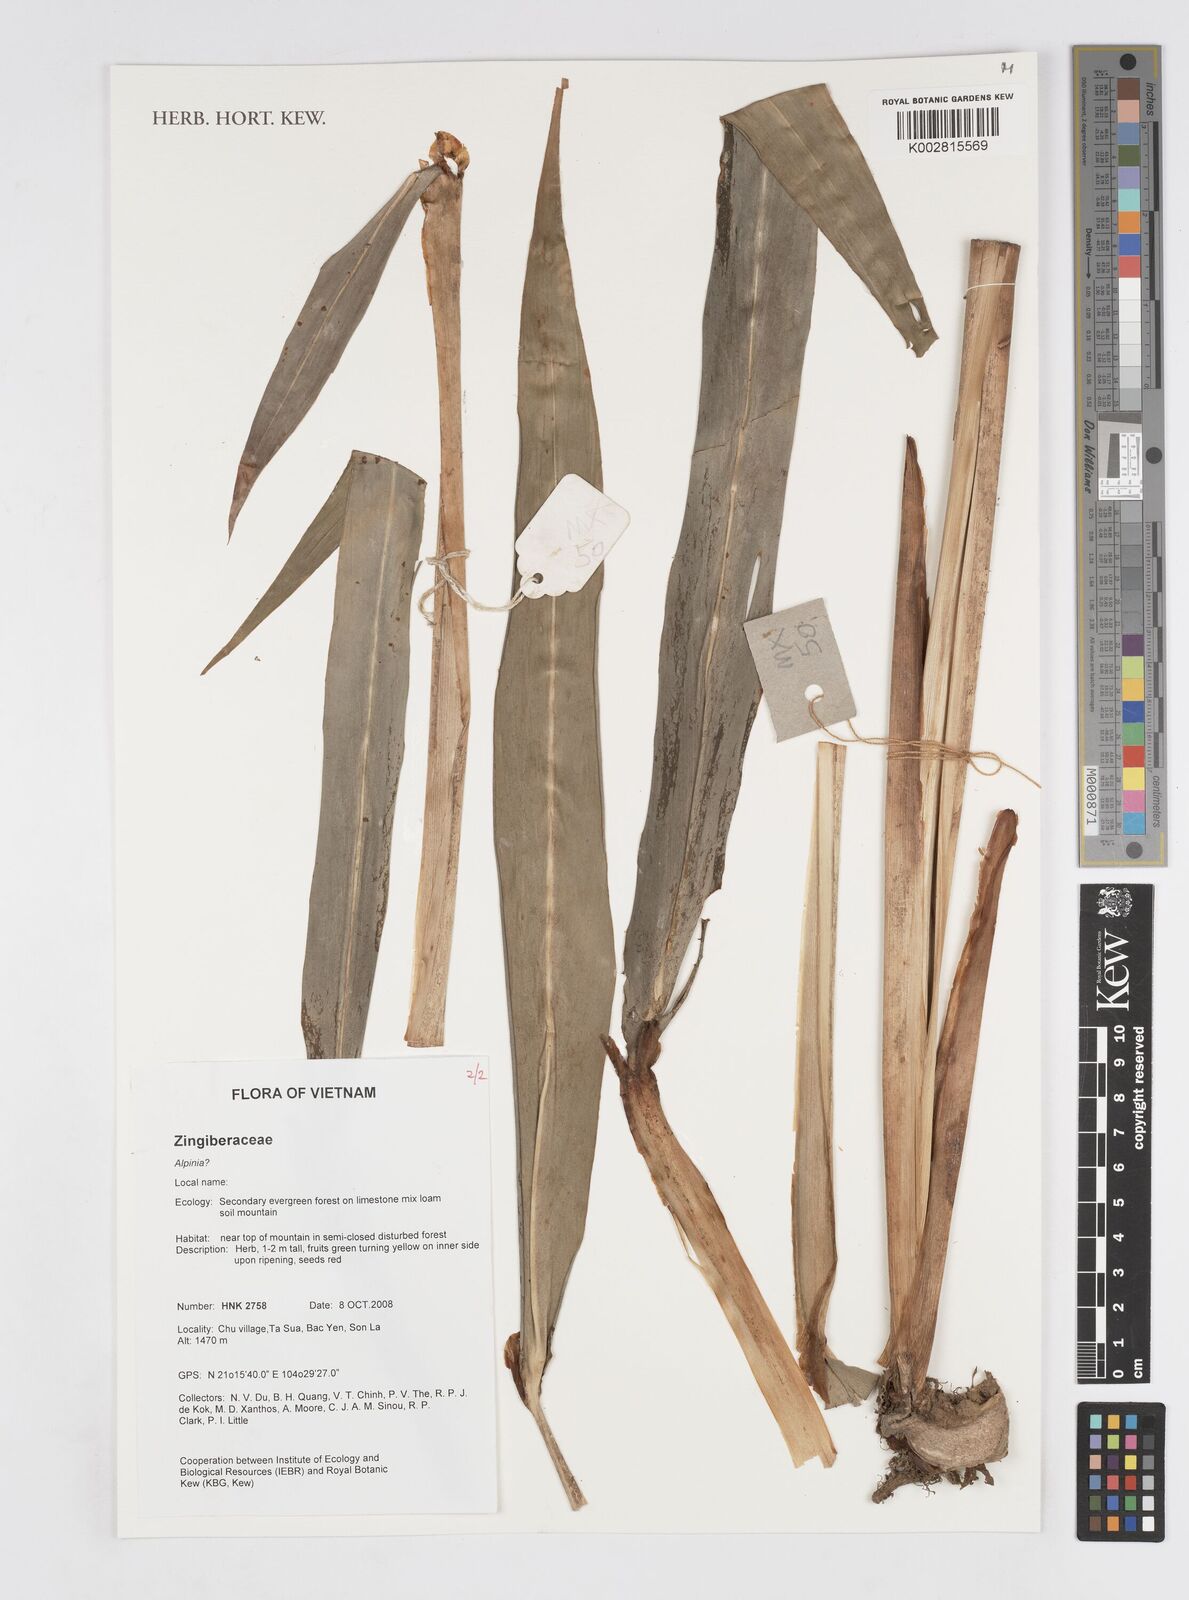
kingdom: Plantae
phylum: Tracheophyta
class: Liliopsida
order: Zingiberales
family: Zingiberaceae
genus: Alpinia
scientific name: Alpinia
